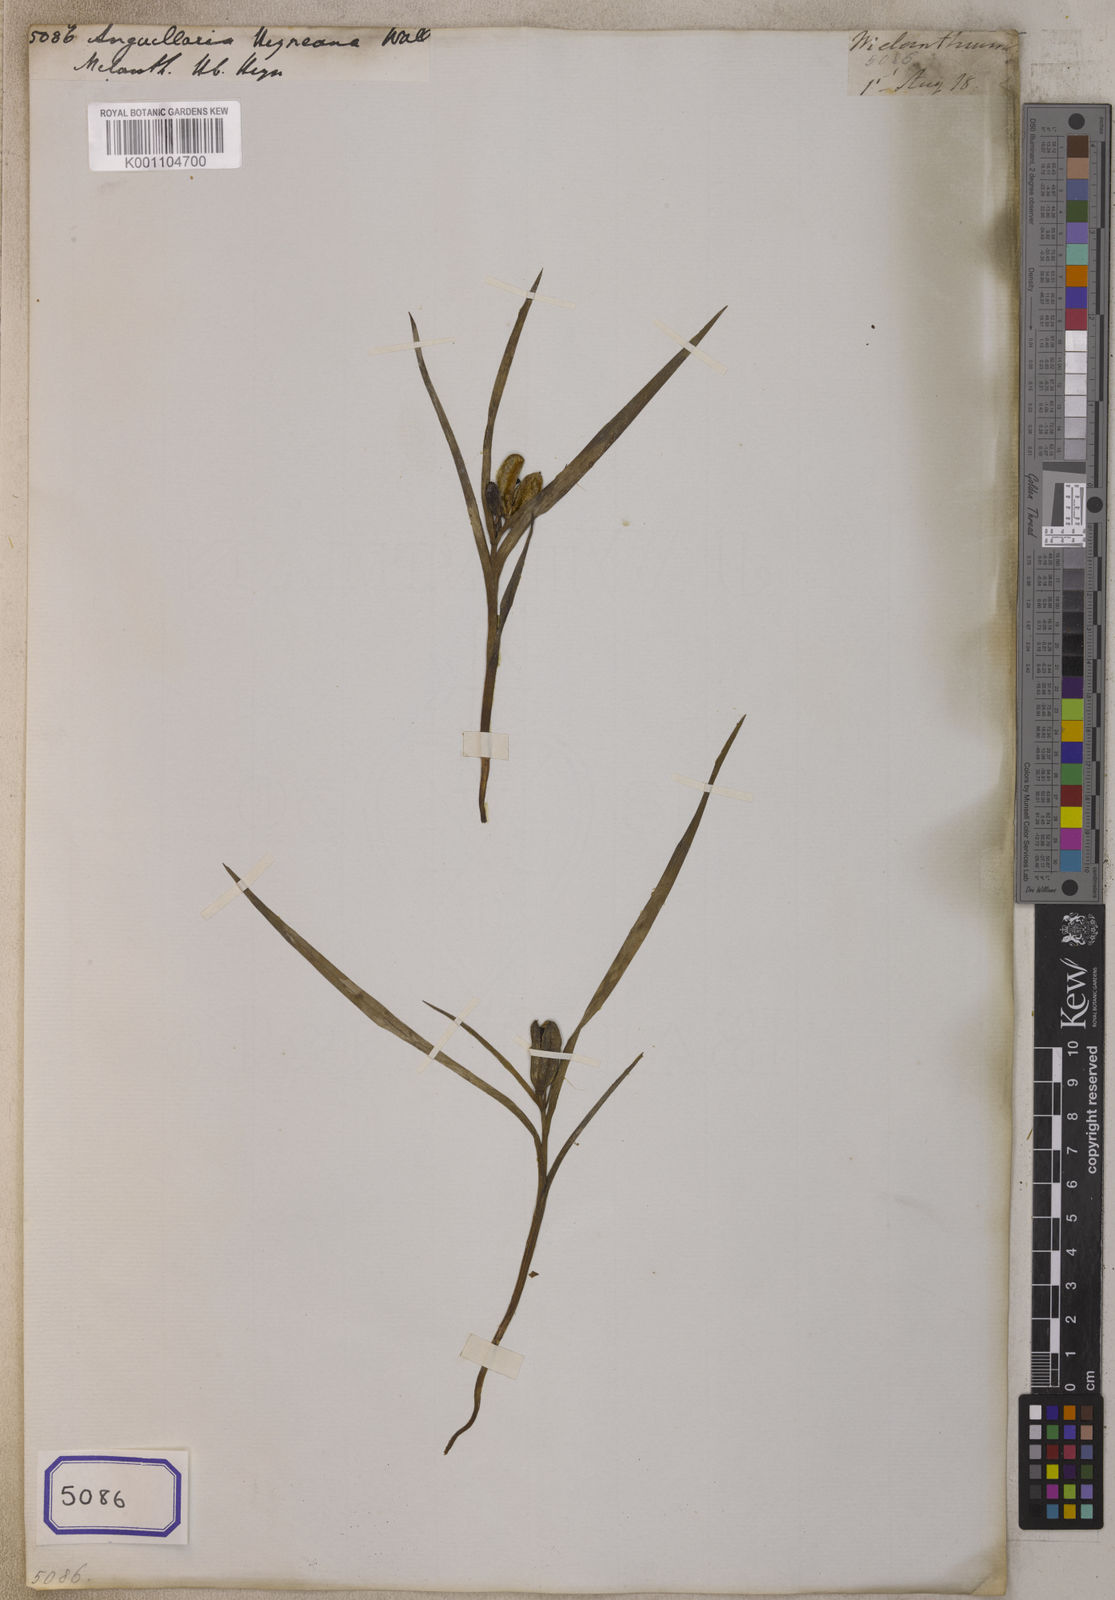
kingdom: Plantae
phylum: Tracheophyta
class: Magnoliopsida
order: Ericales
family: Primulaceae
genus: Ardisia
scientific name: Ardisia
